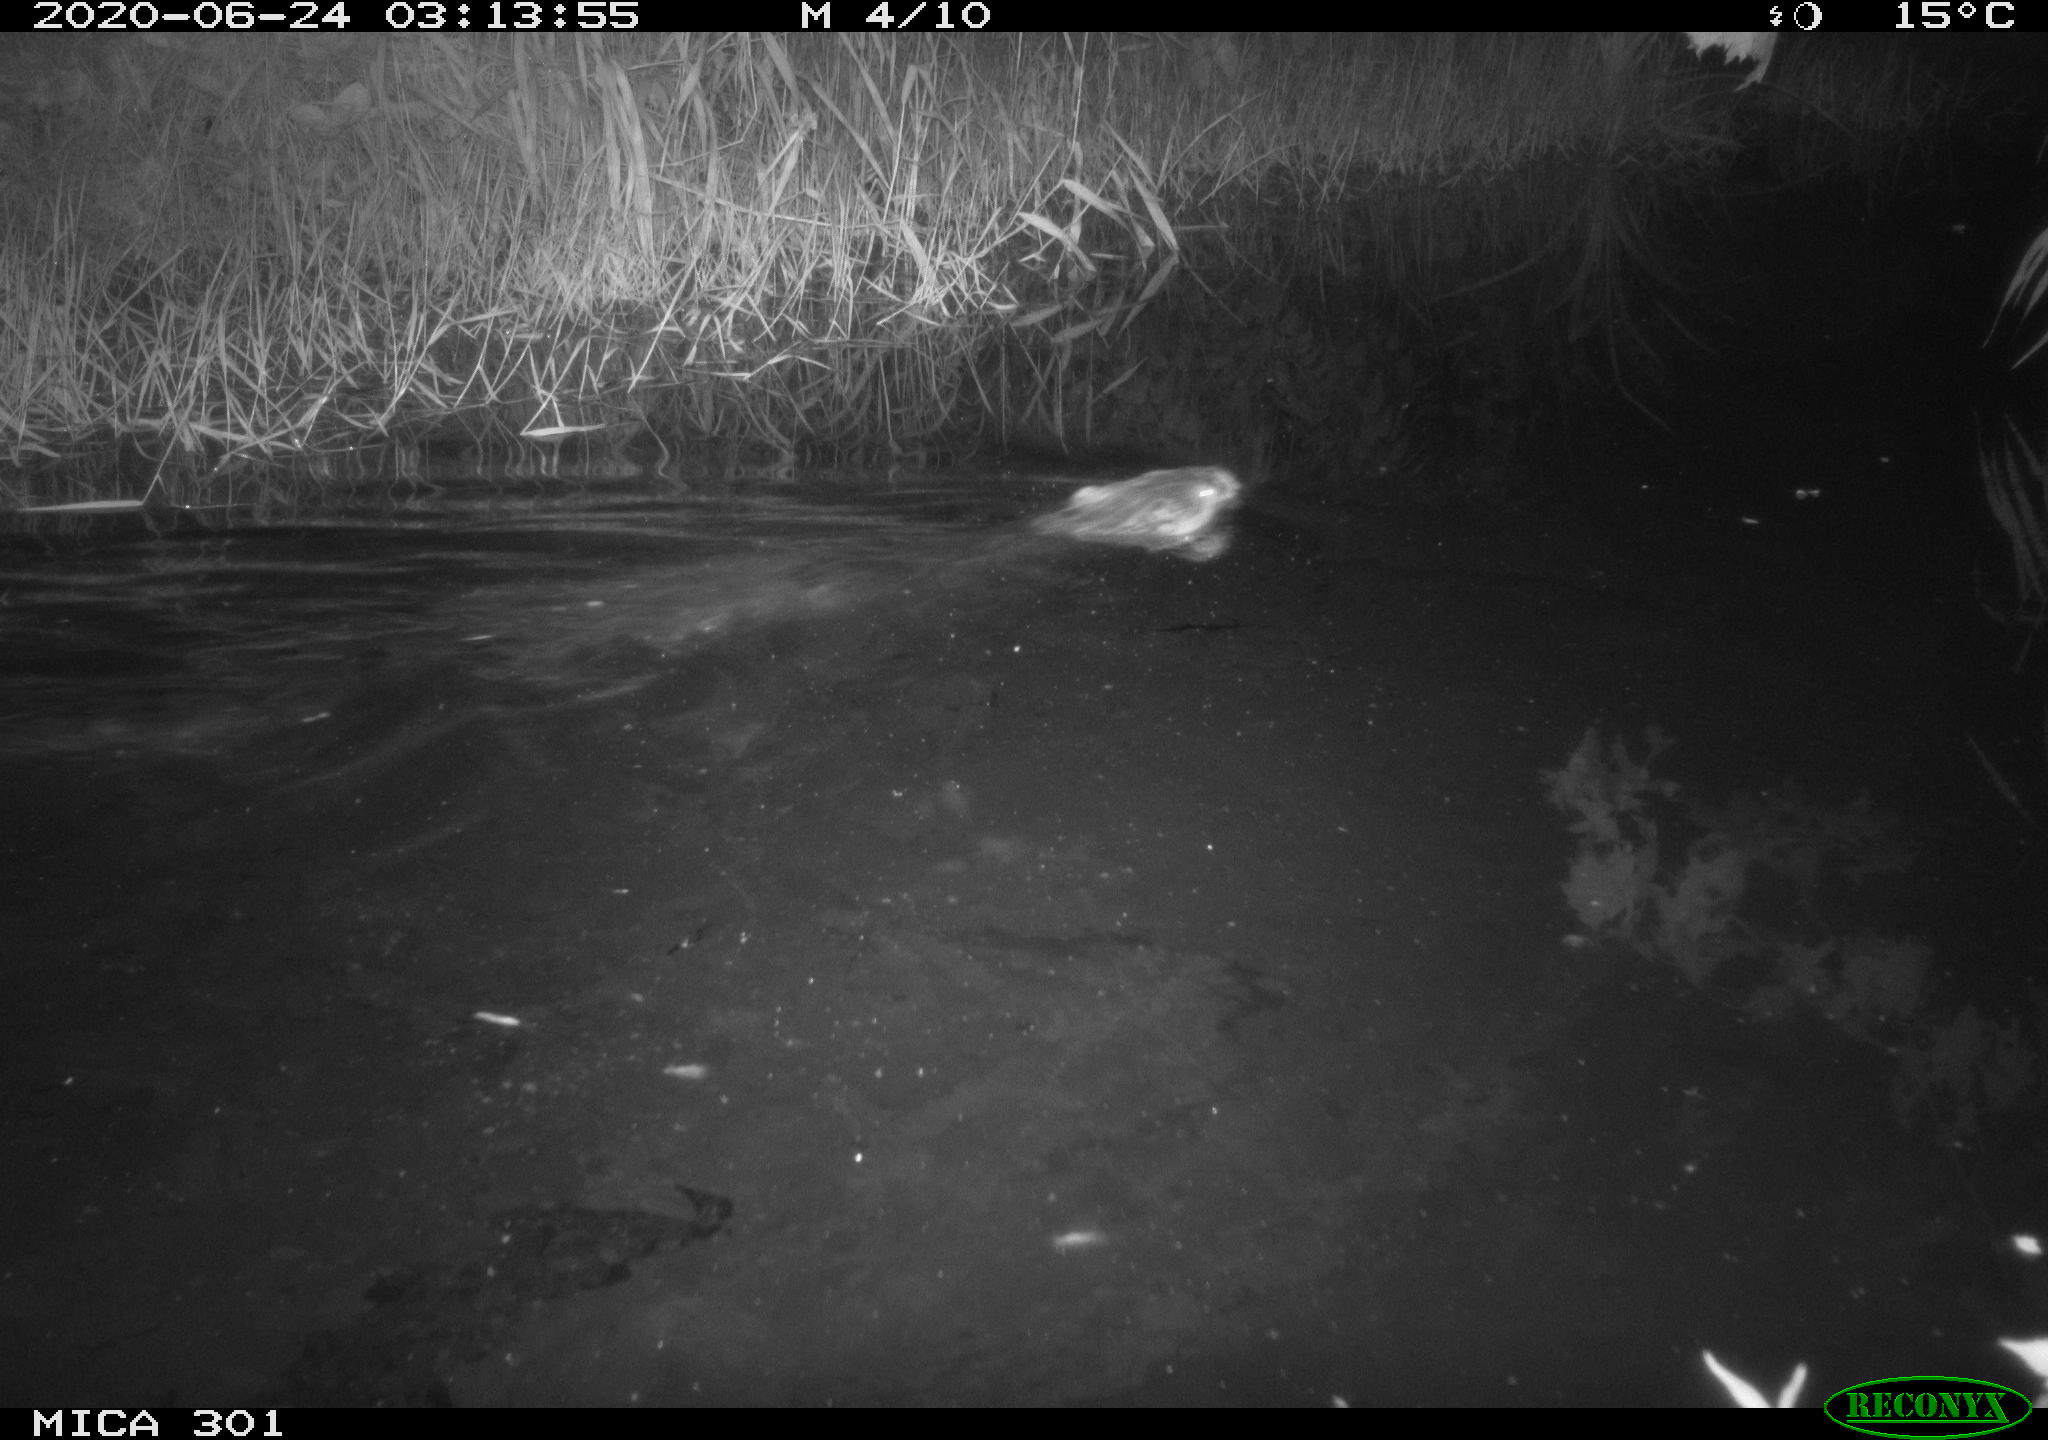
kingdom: Animalia
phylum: Chordata
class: Mammalia
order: Rodentia
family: Castoridae
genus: Castor
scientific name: Castor fiber
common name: Eurasian beaver
